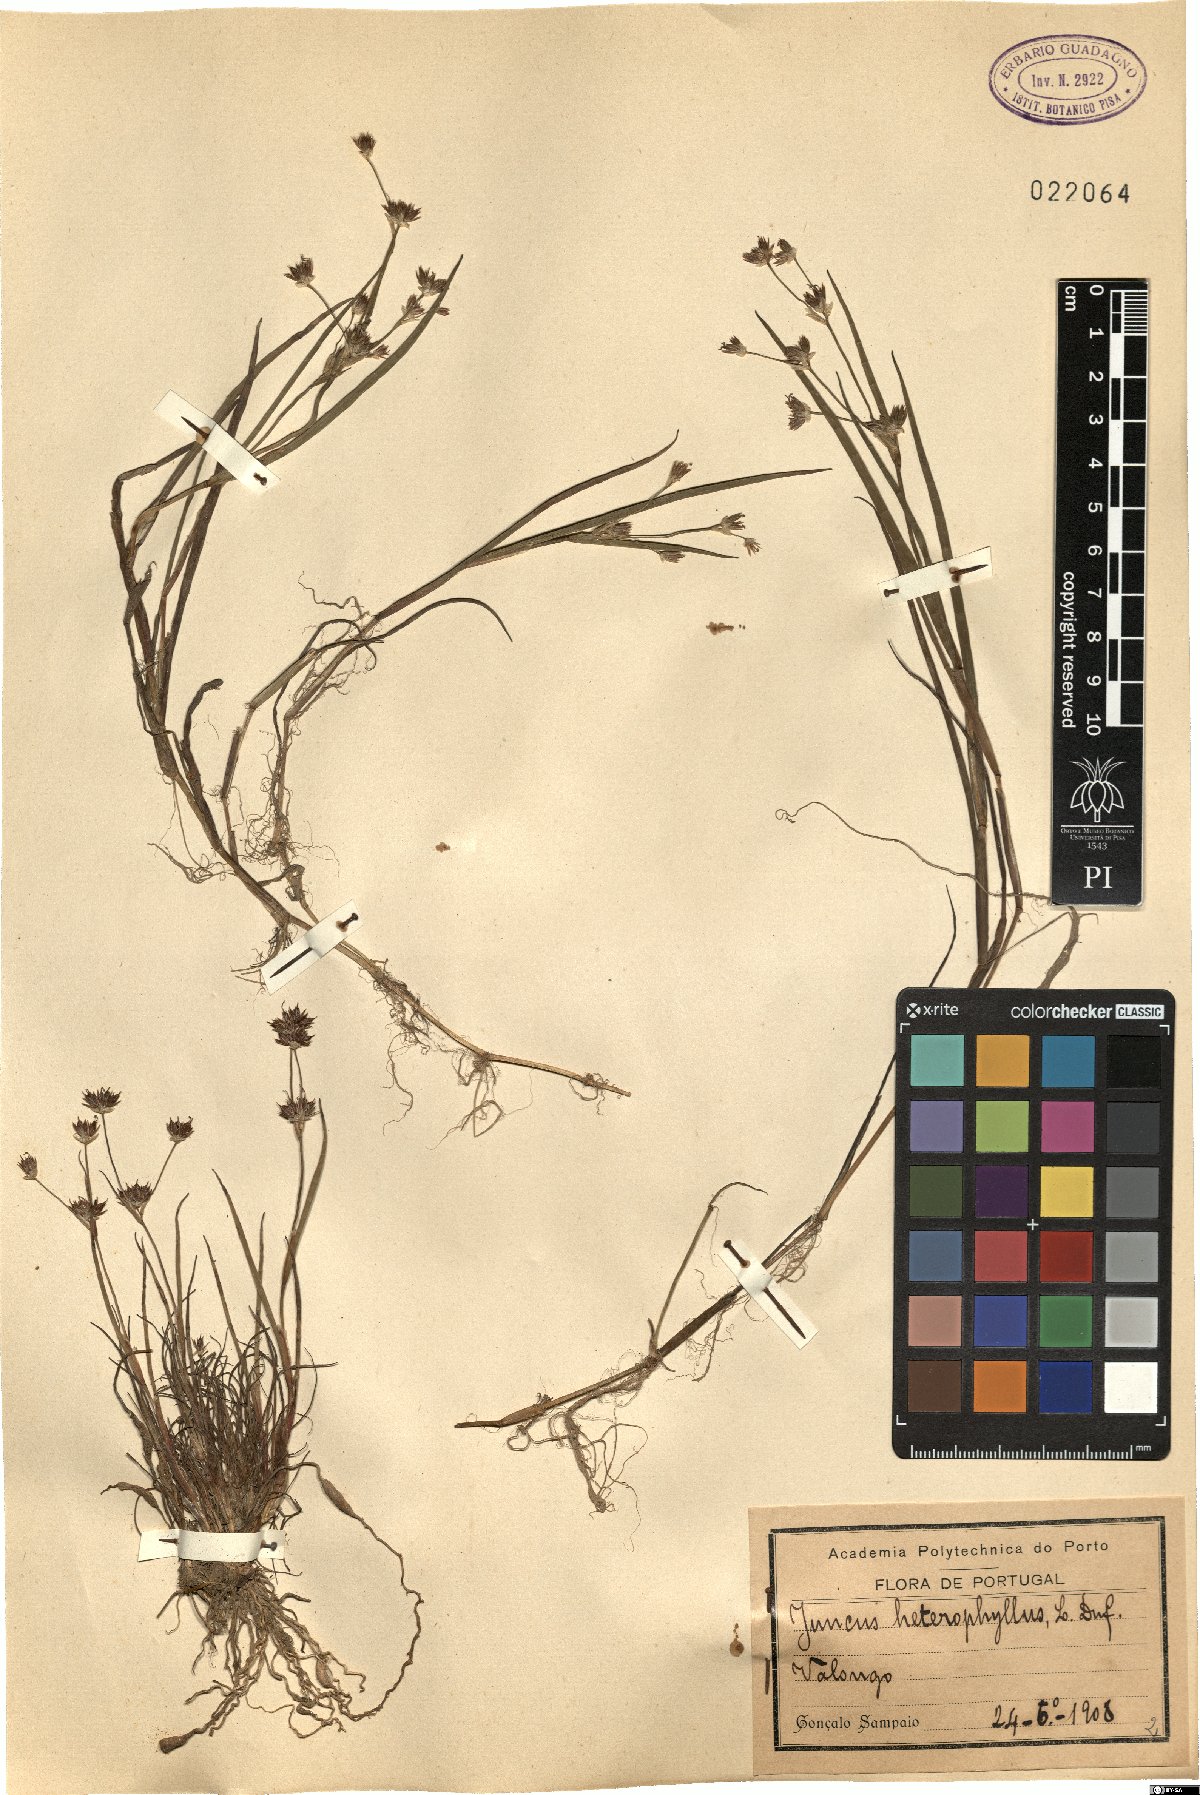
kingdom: Plantae
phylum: Tracheophyta
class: Liliopsida
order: Poales
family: Juncaceae
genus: Juncus
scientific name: Juncus heterophyllus
